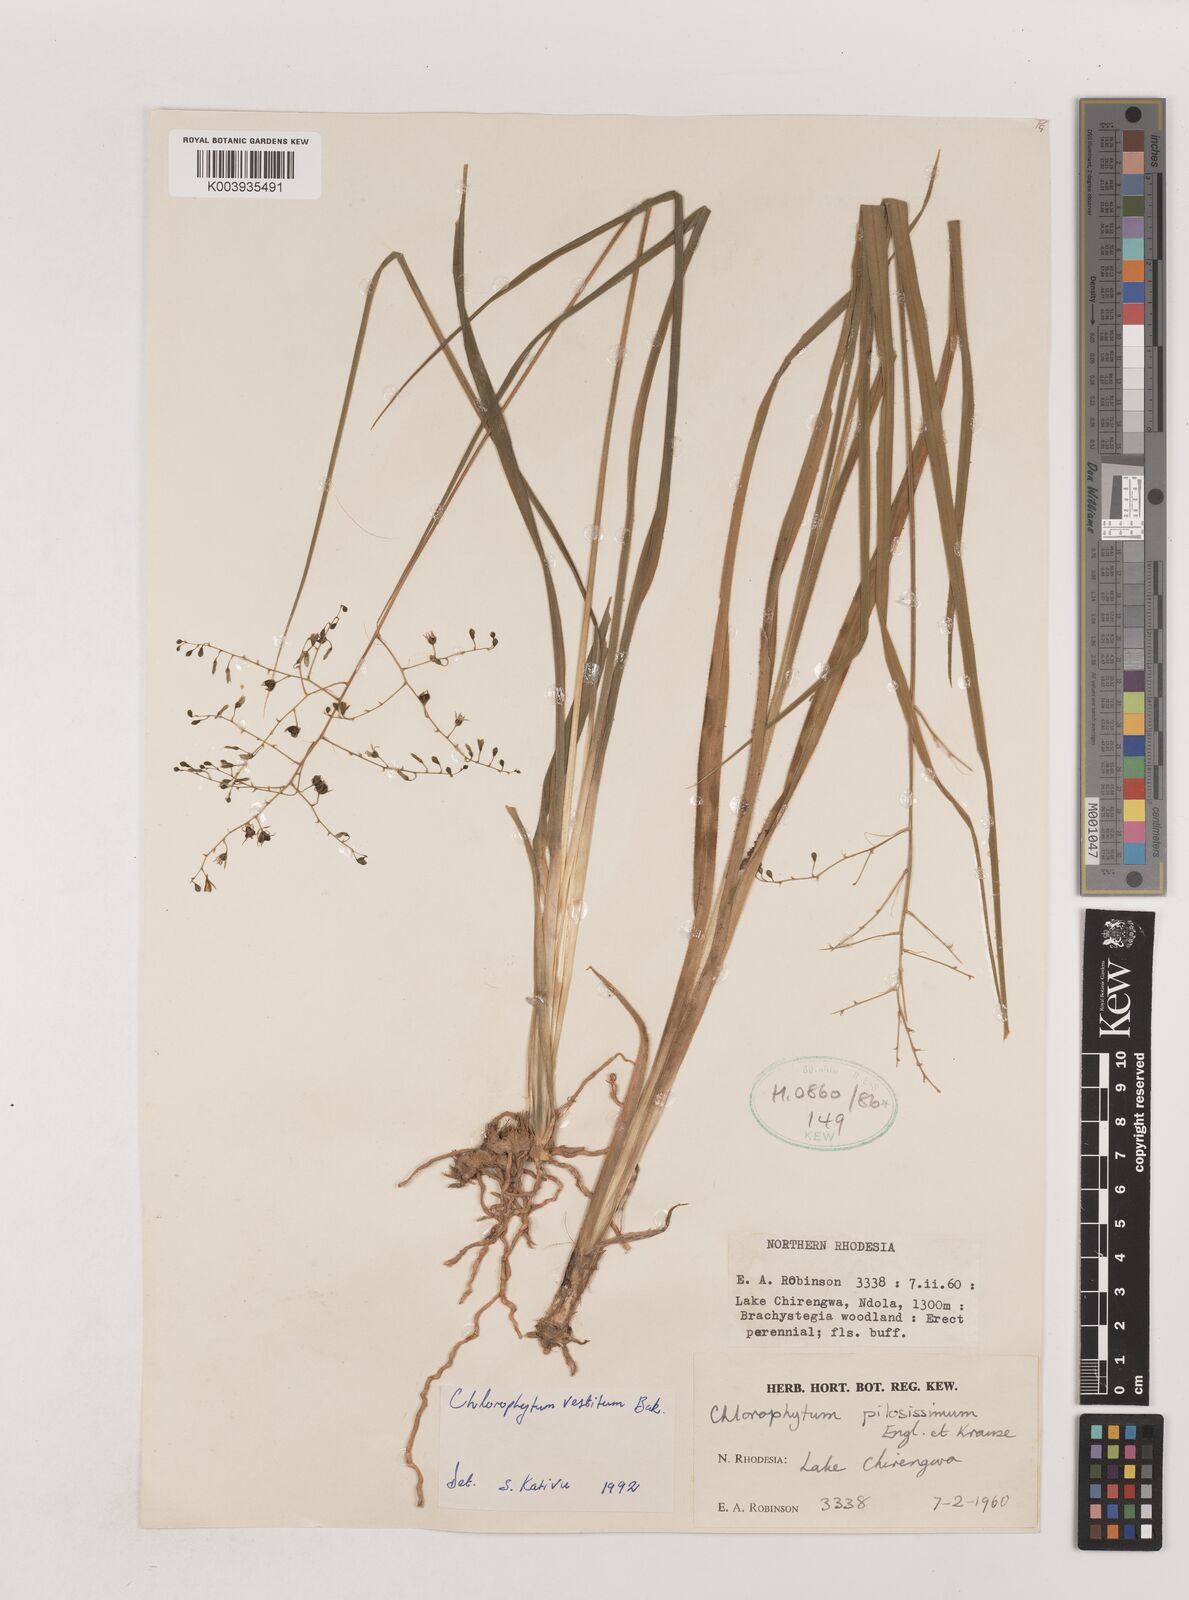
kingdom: Plantae
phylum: Tracheophyta
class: Liliopsida
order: Asparagales
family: Asparagaceae
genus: Chlorophytum
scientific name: Chlorophytum vestitum
